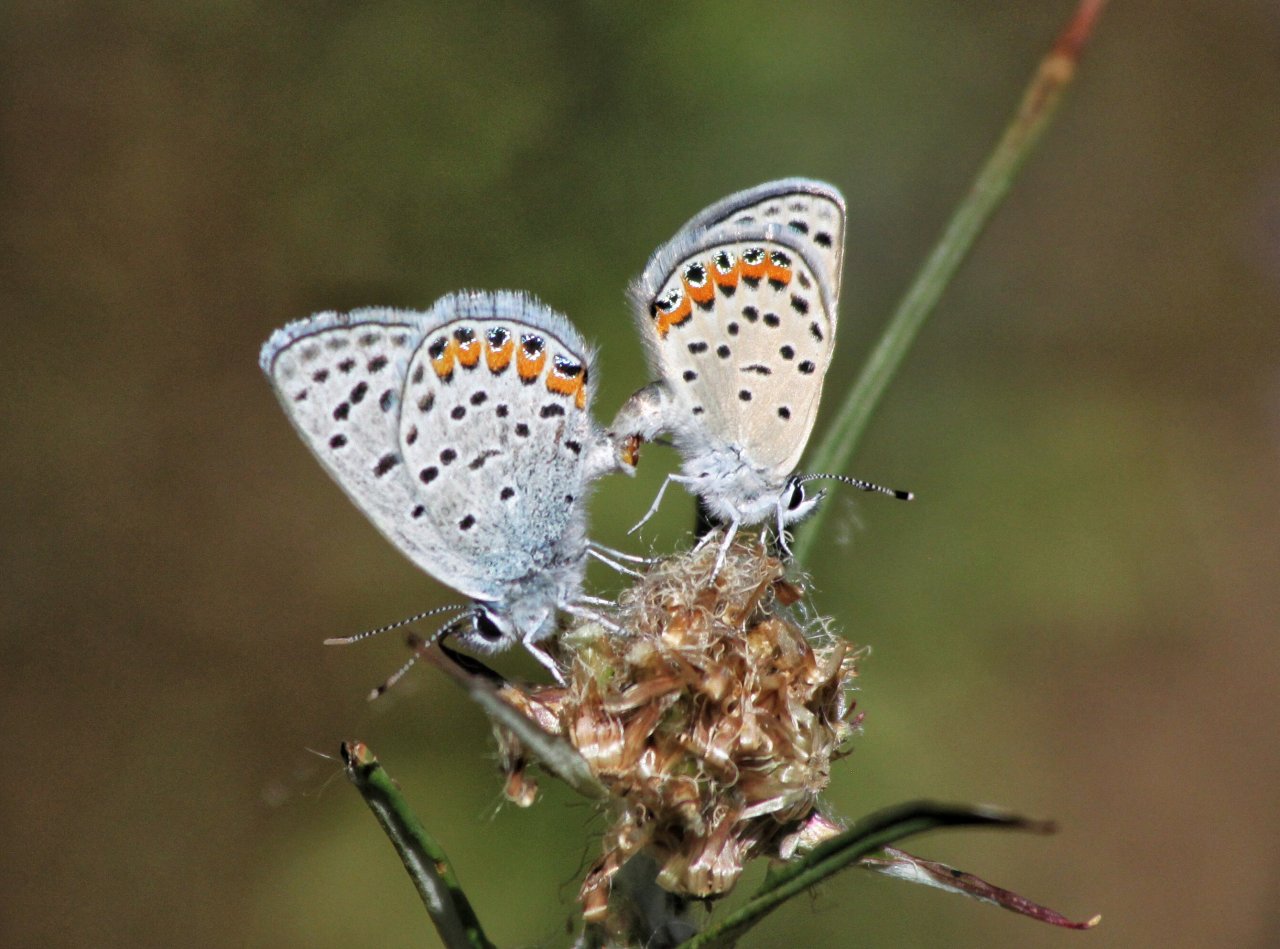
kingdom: Animalia
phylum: Arthropoda
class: Insecta
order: Lepidoptera
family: Lycaenidae
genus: Plebejus
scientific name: Plebejus acmon
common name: Acmon Blue
